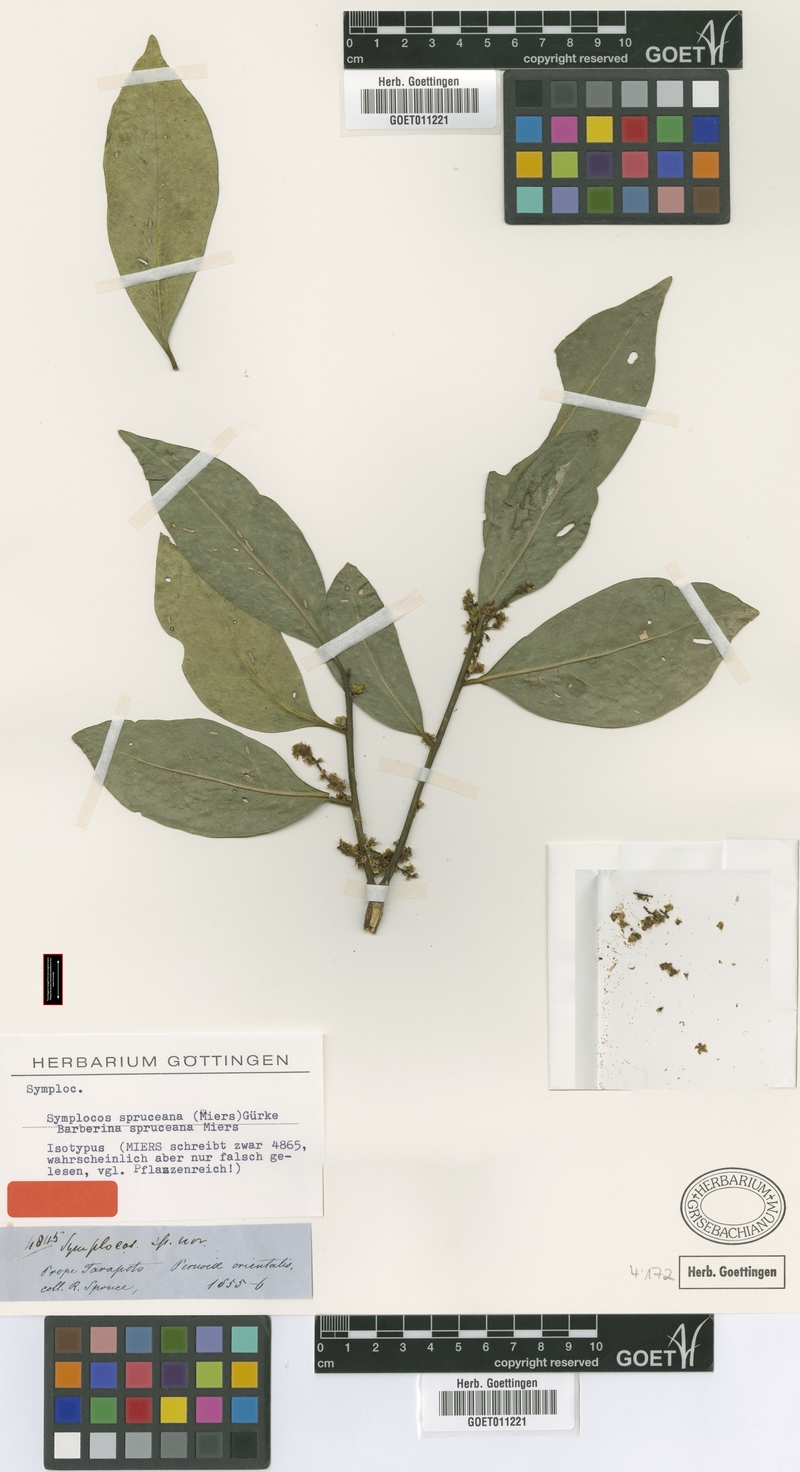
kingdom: Plantae
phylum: Tracheophyta
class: Magnoliopsida
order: Ericales
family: Symplocaceae
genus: Symplocos
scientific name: Symplocos spruceana
